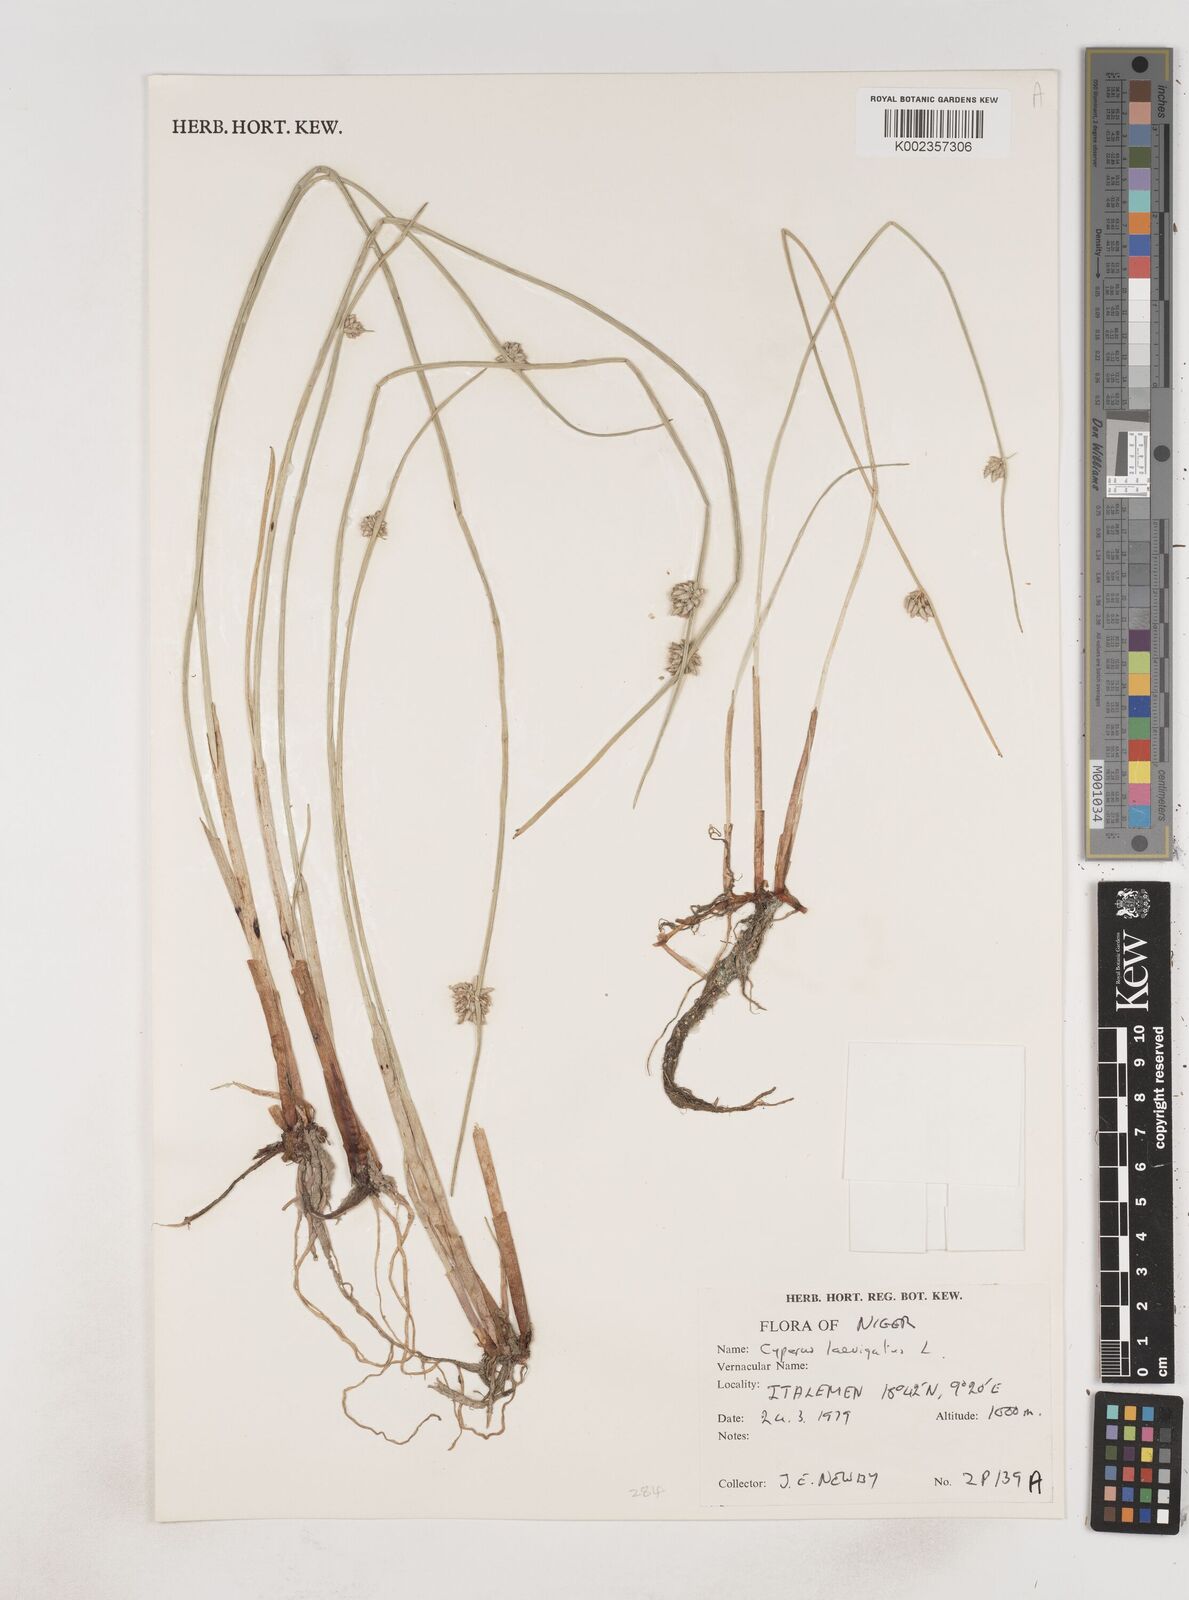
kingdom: Plantae
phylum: Tracheophyta
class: Liliopsida
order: Poales
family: Cyperaceae
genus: Cyperus
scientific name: Cyperus laevigatus
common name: Smooth flat sedge
